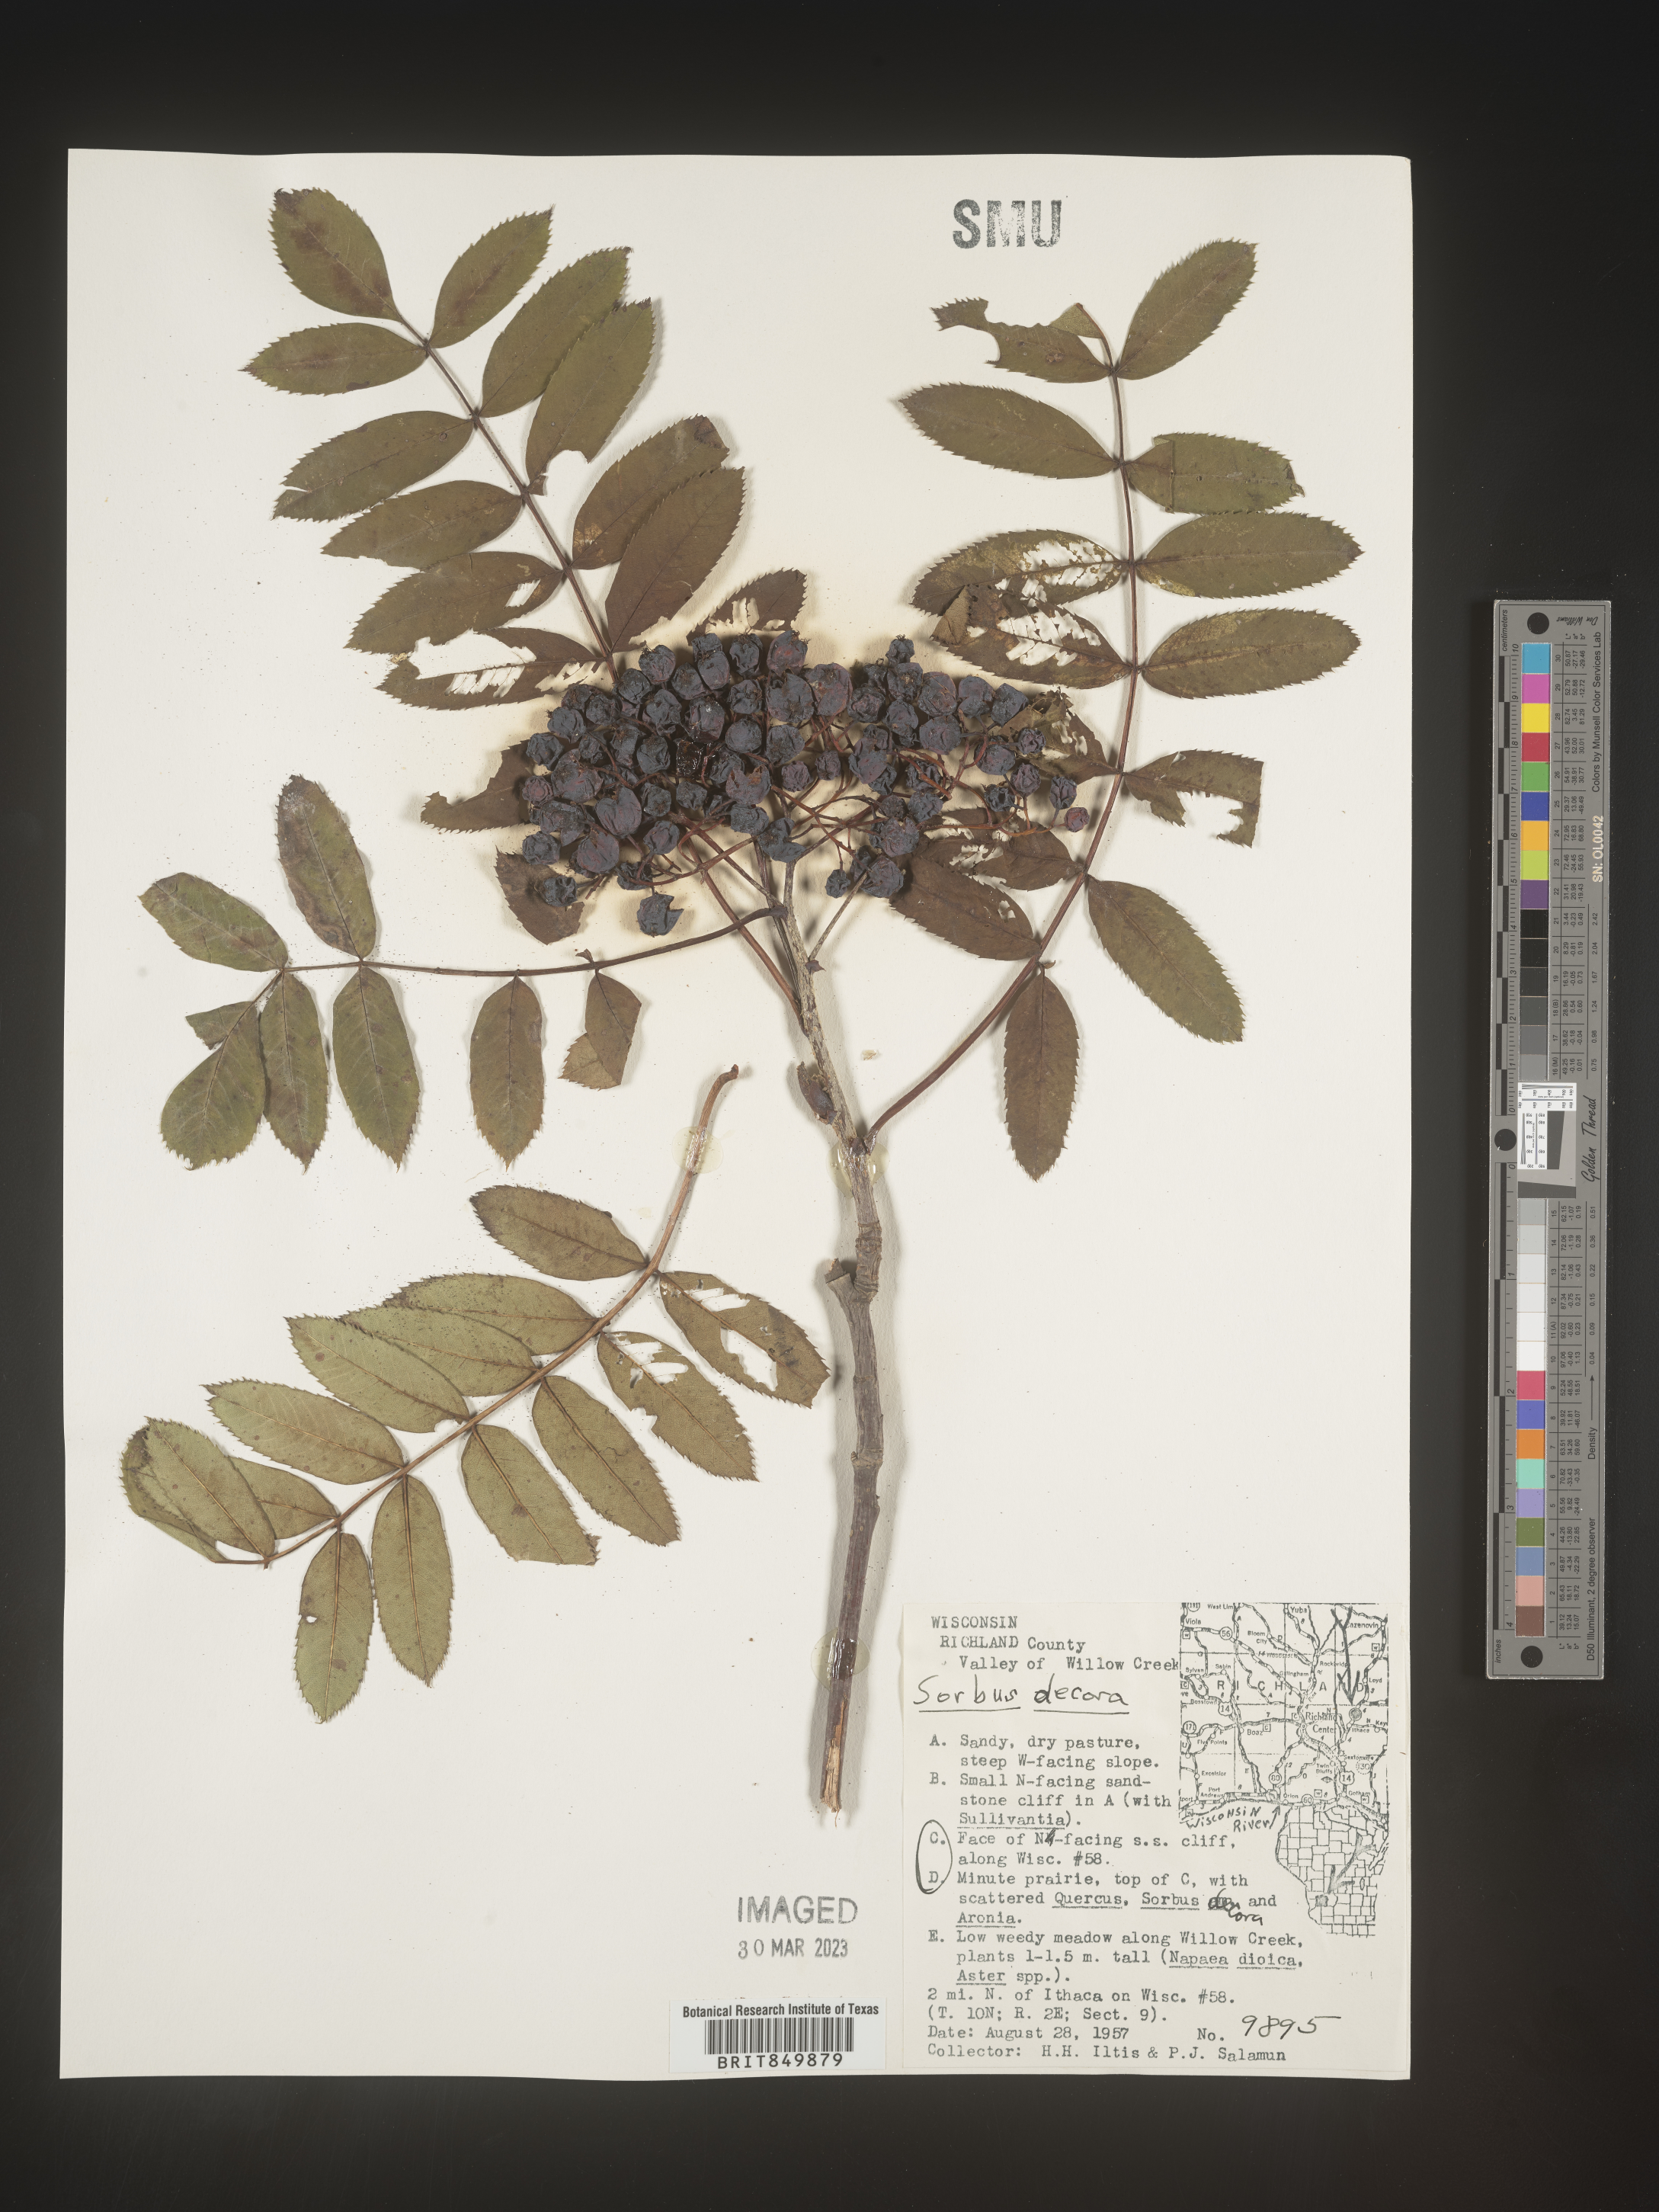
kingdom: Plantae
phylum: Tracheophyta
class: Magnoliopsida
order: Rosales
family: Rosaceae
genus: Sorbus
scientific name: Sorbus
